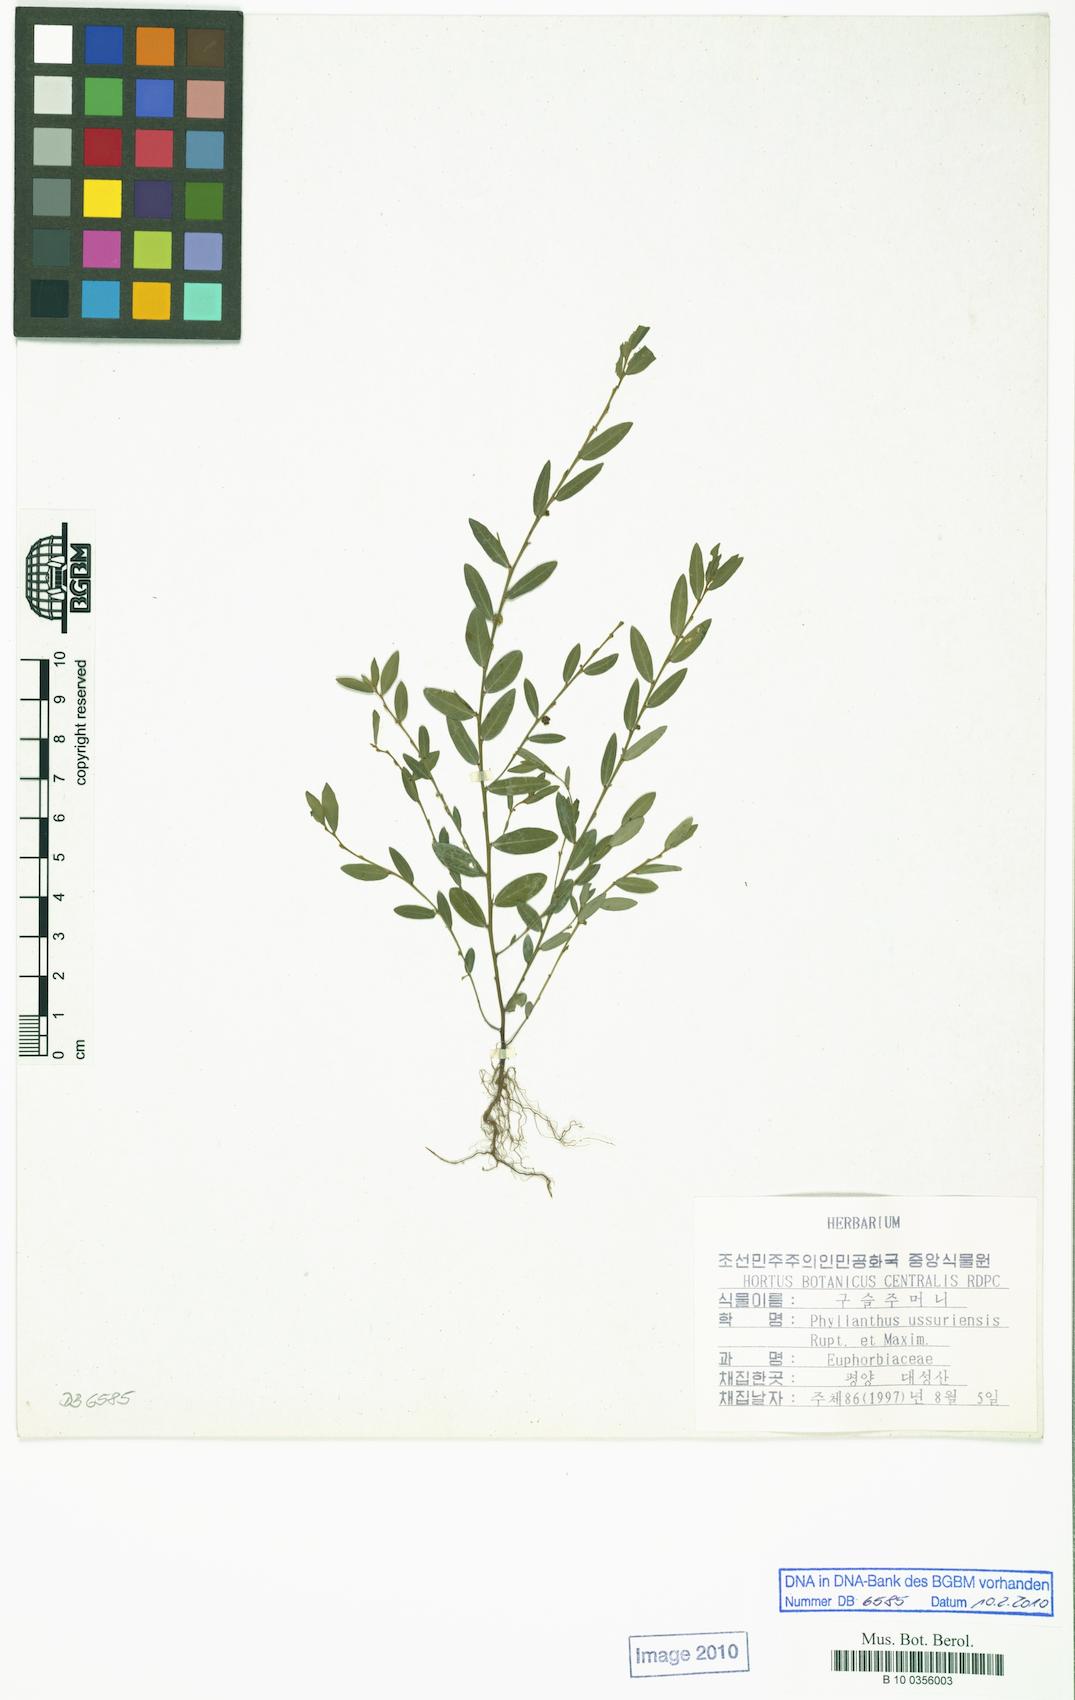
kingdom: Plantae
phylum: Tracheophyta
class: Magnoliopsida
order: Malpighiales
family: Phyllanthaceae
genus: Phyllanthus
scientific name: Phyllanthus ussuriensis
